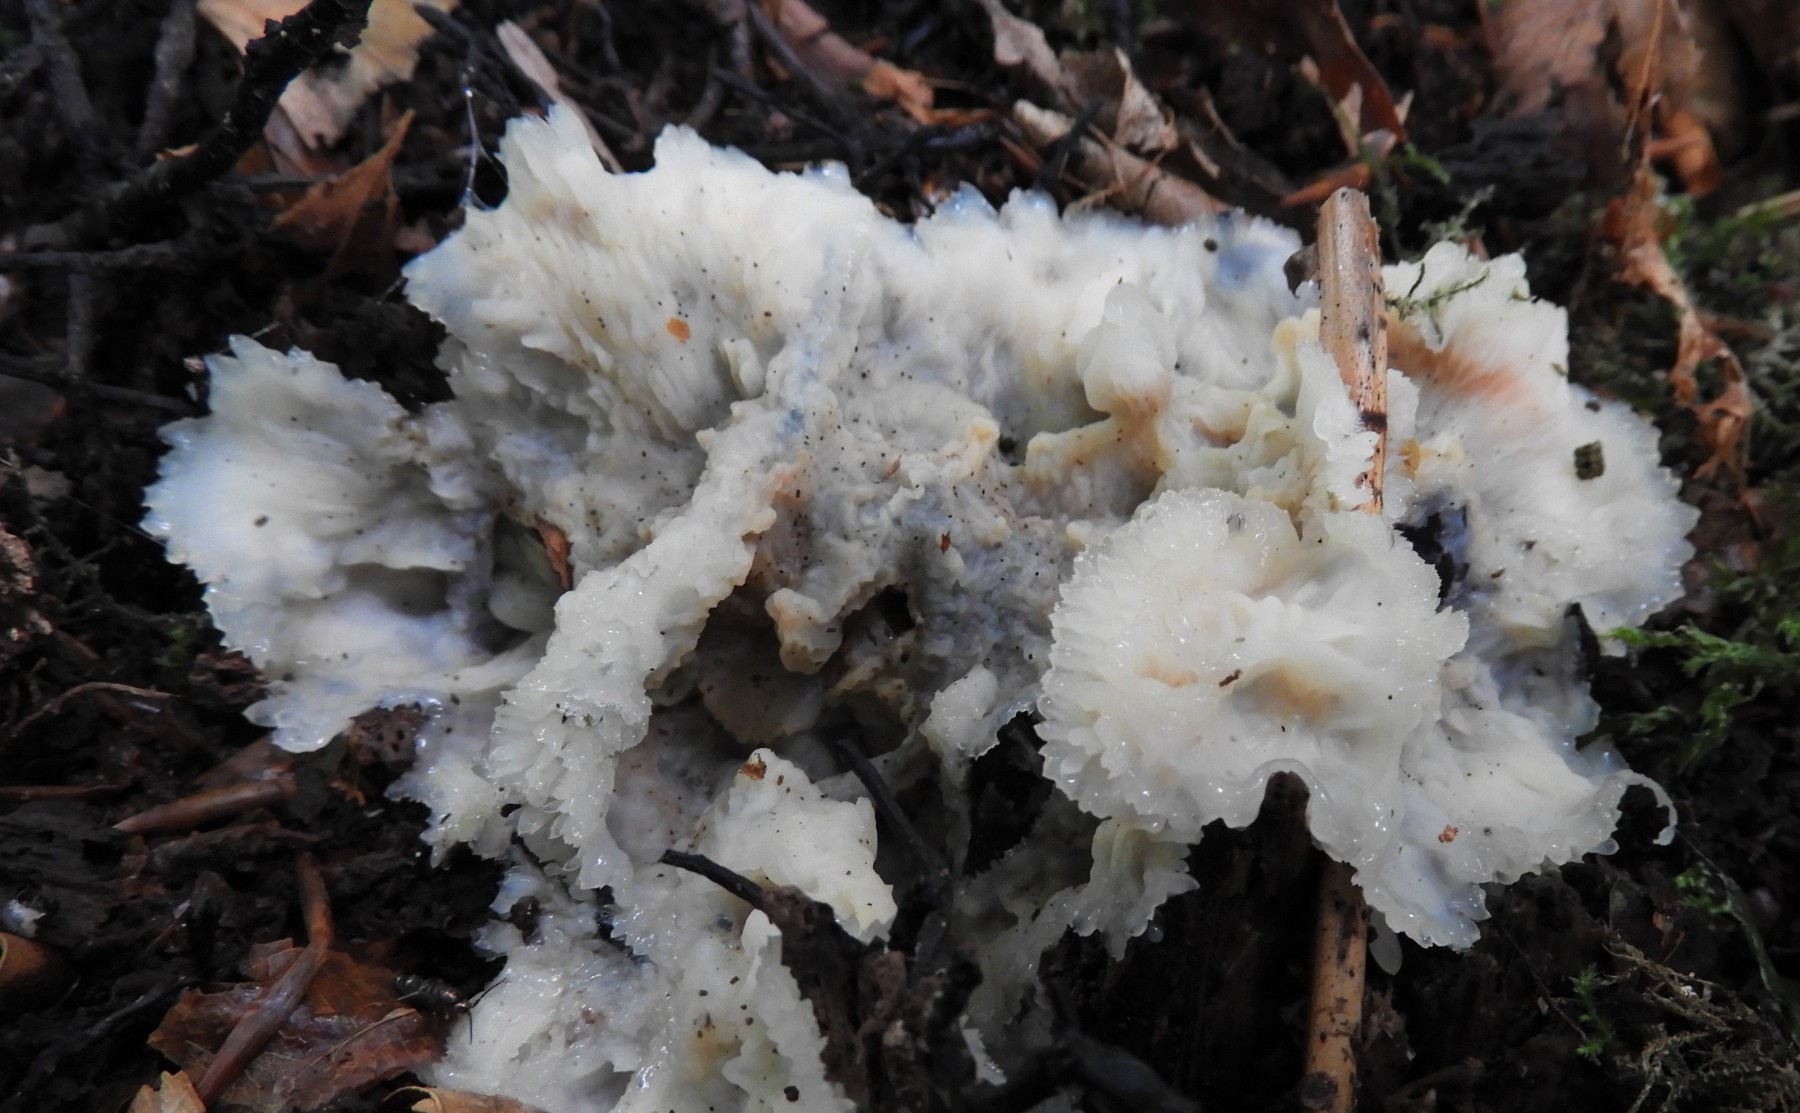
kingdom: Fungi
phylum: Basidiomycota
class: Agaricomycetes
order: Polyporales
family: Meruliaceae
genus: Phlebia
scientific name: Phlebia tremellosa
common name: bævrende åresvamp
